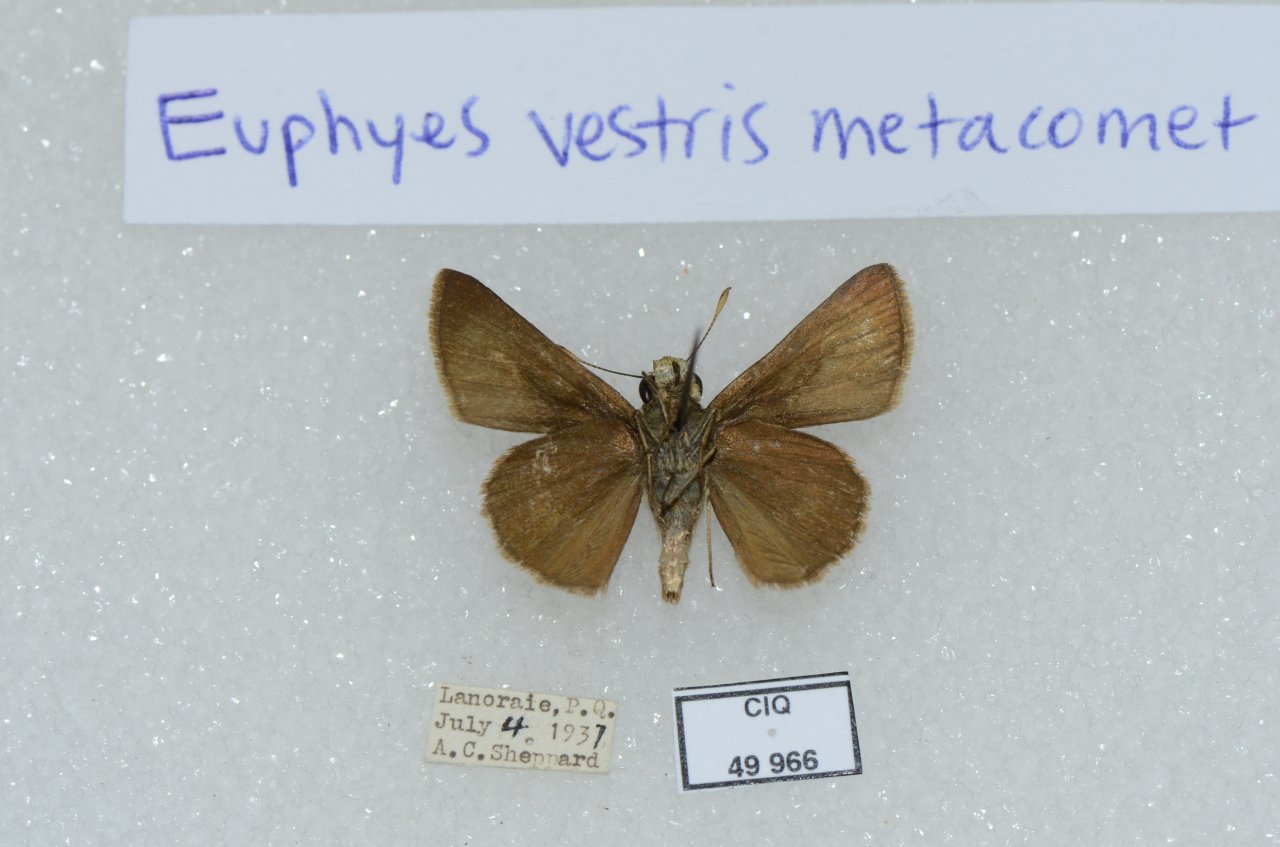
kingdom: Animalia
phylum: Arthropoda
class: Insecta
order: Lepidoptera
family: Hesperiidae
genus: Euphyes
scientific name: Euphyes vestris
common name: Dun Skipper
